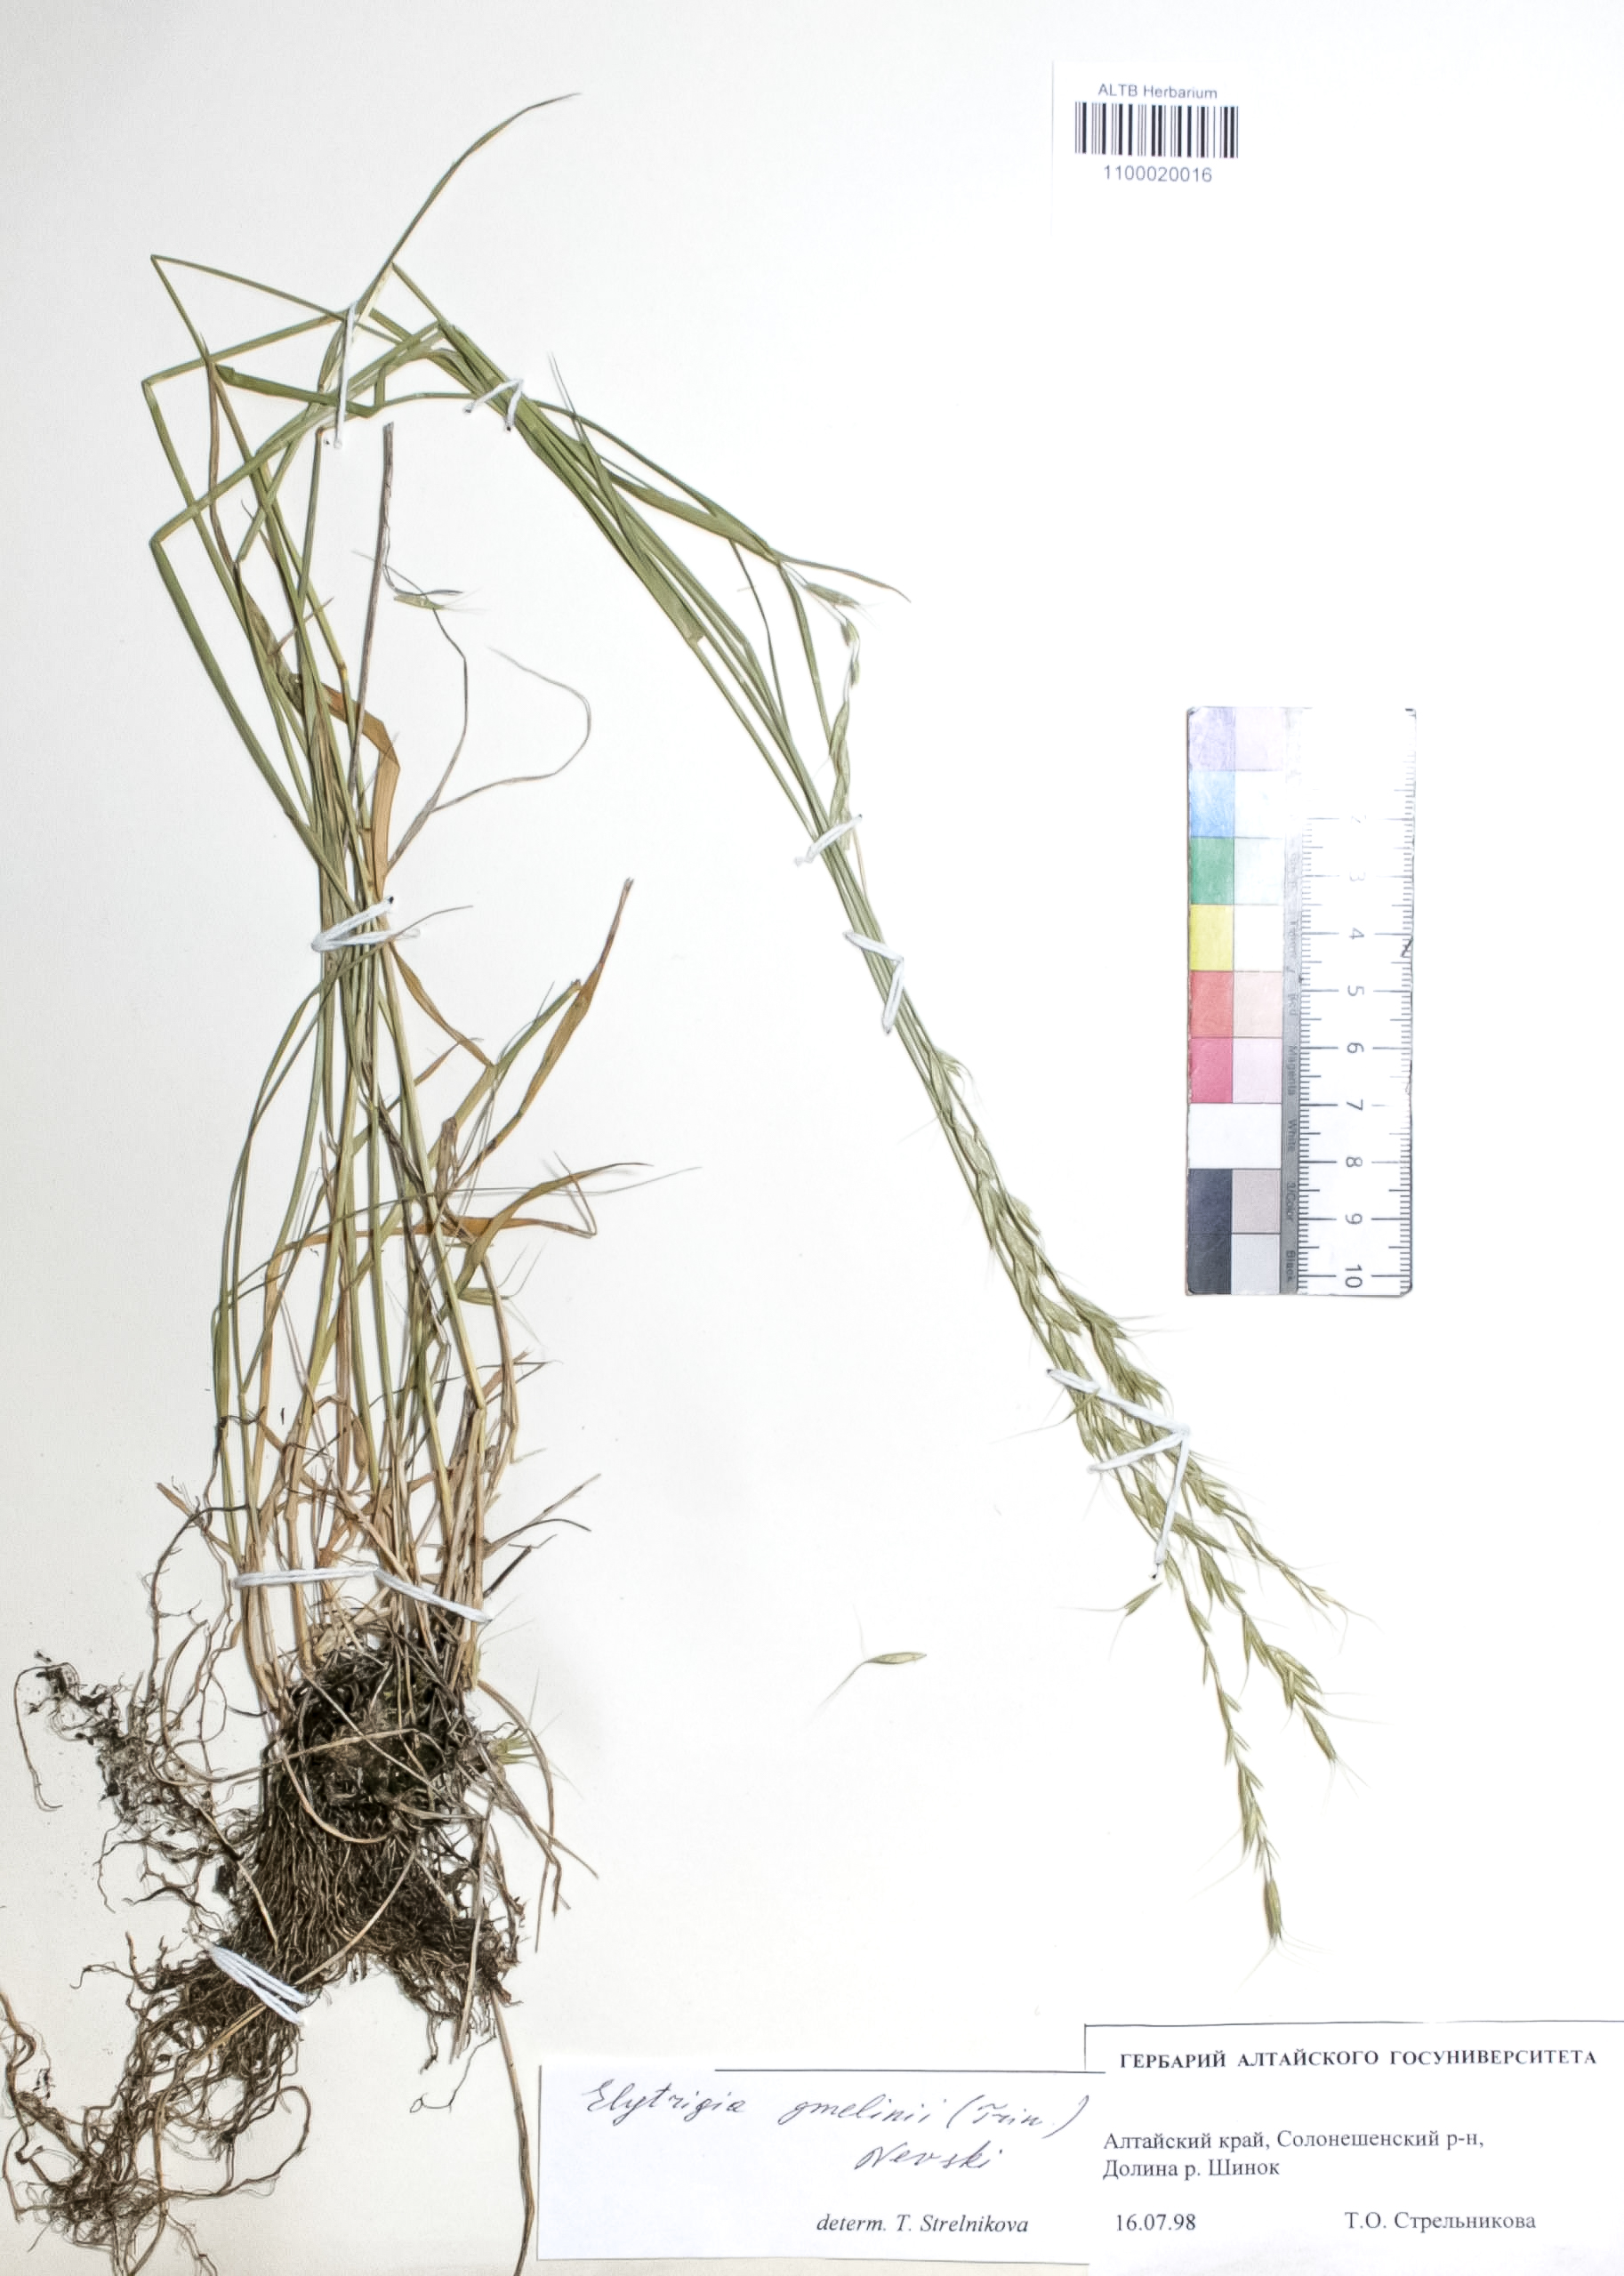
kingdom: Plantae
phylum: Tracheophyta
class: Liliopsida
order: Poales
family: Poaceae
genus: Pseudoroegneria
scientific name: Pseudoroegneria reflexiaristata
